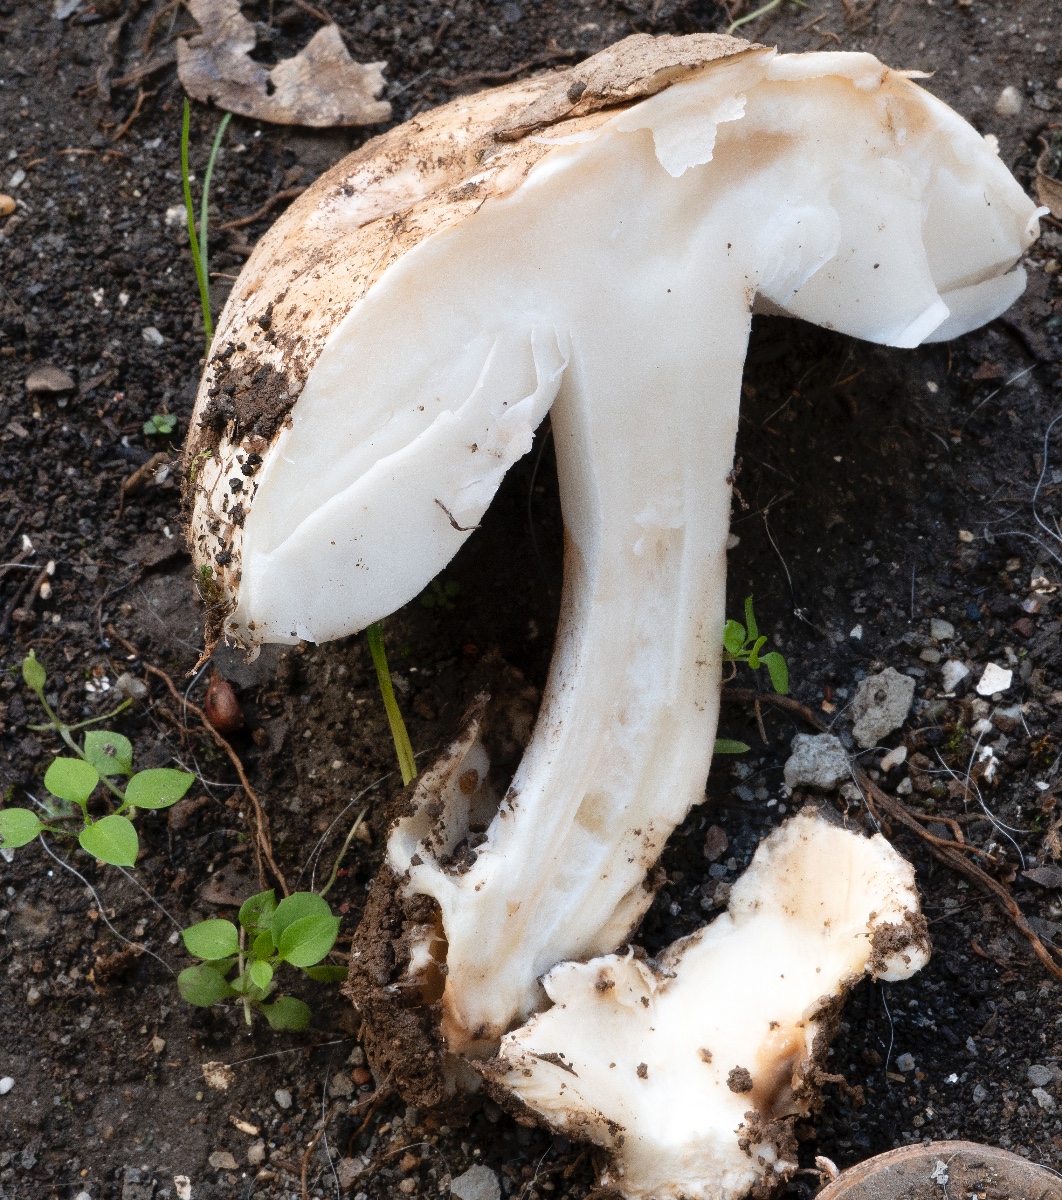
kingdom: Fungi
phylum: Basidiomycota
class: Agaricomycetes
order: Agaricales
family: Amanitaceae
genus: Amanita
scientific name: Amanita curtipes
